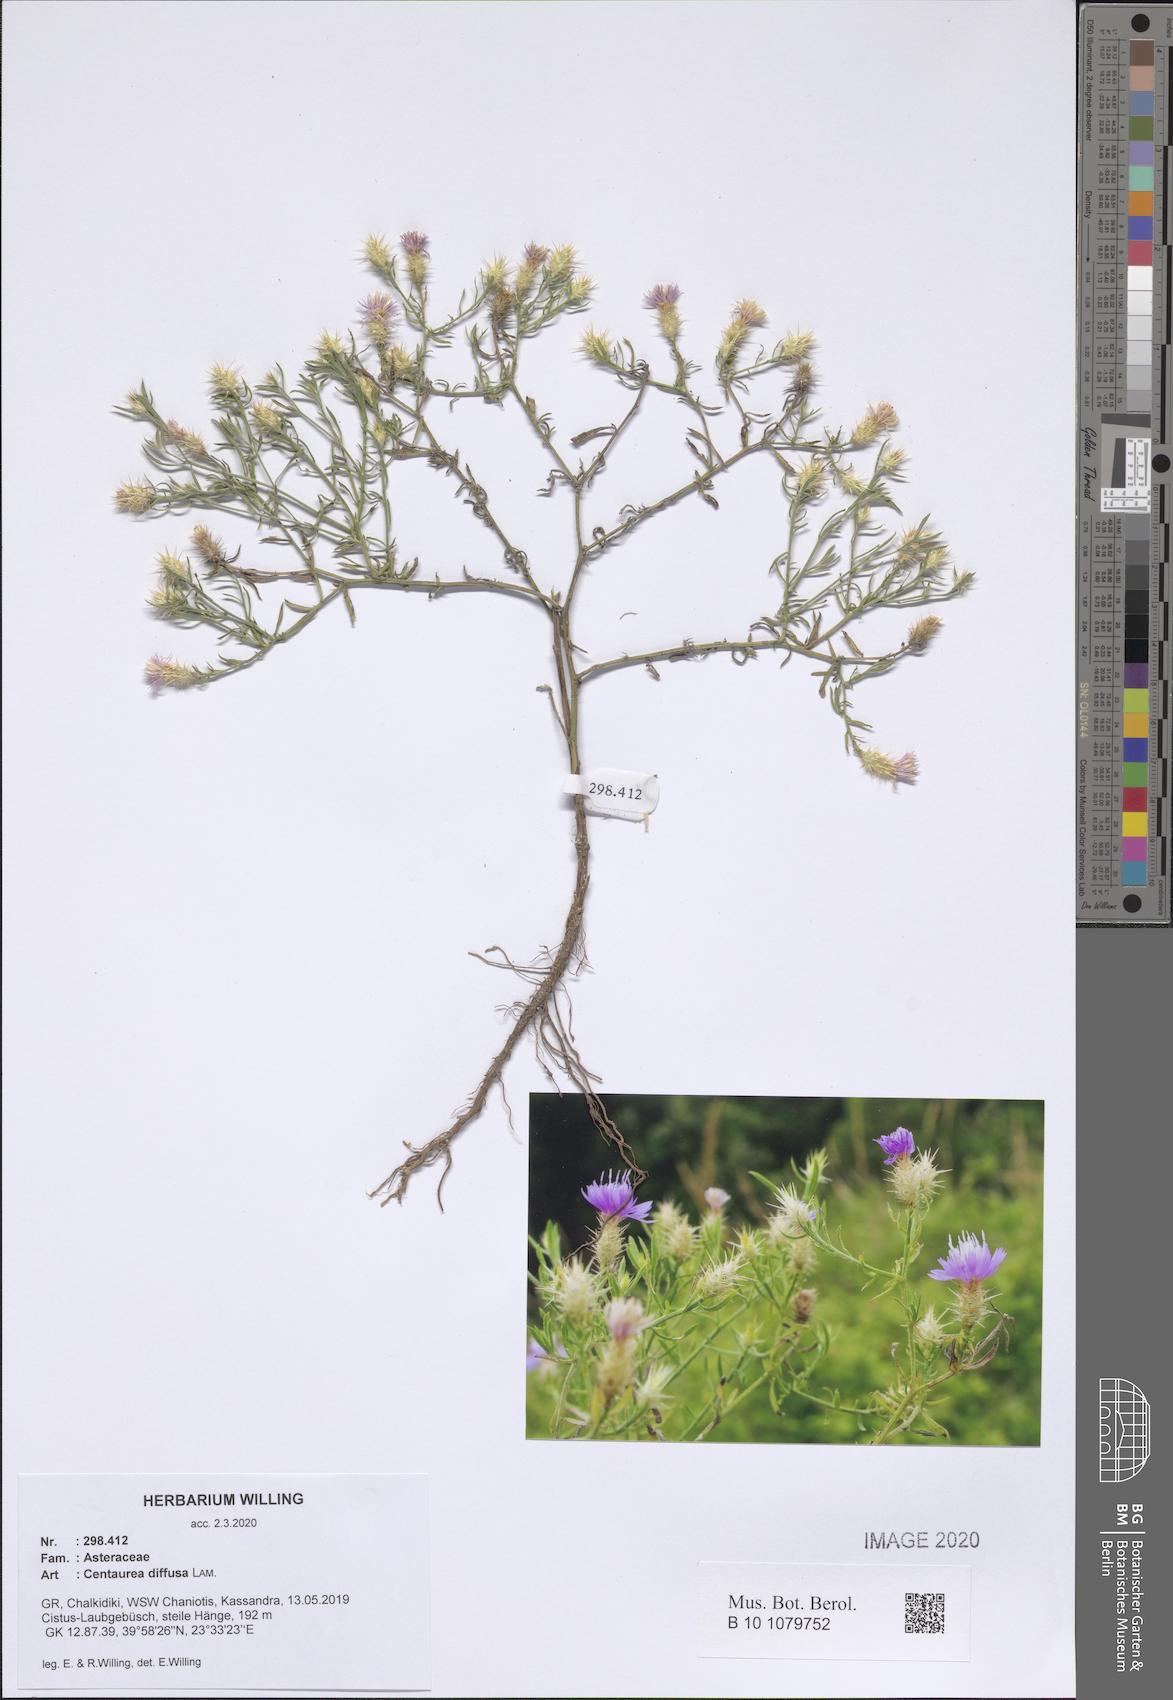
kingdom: Plantae
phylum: Tracheophyta
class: Magnoliopsida
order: Asterales
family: Asteraceae
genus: Centaurea
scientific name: Centaurea diffusa
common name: Diffuse knapweed
